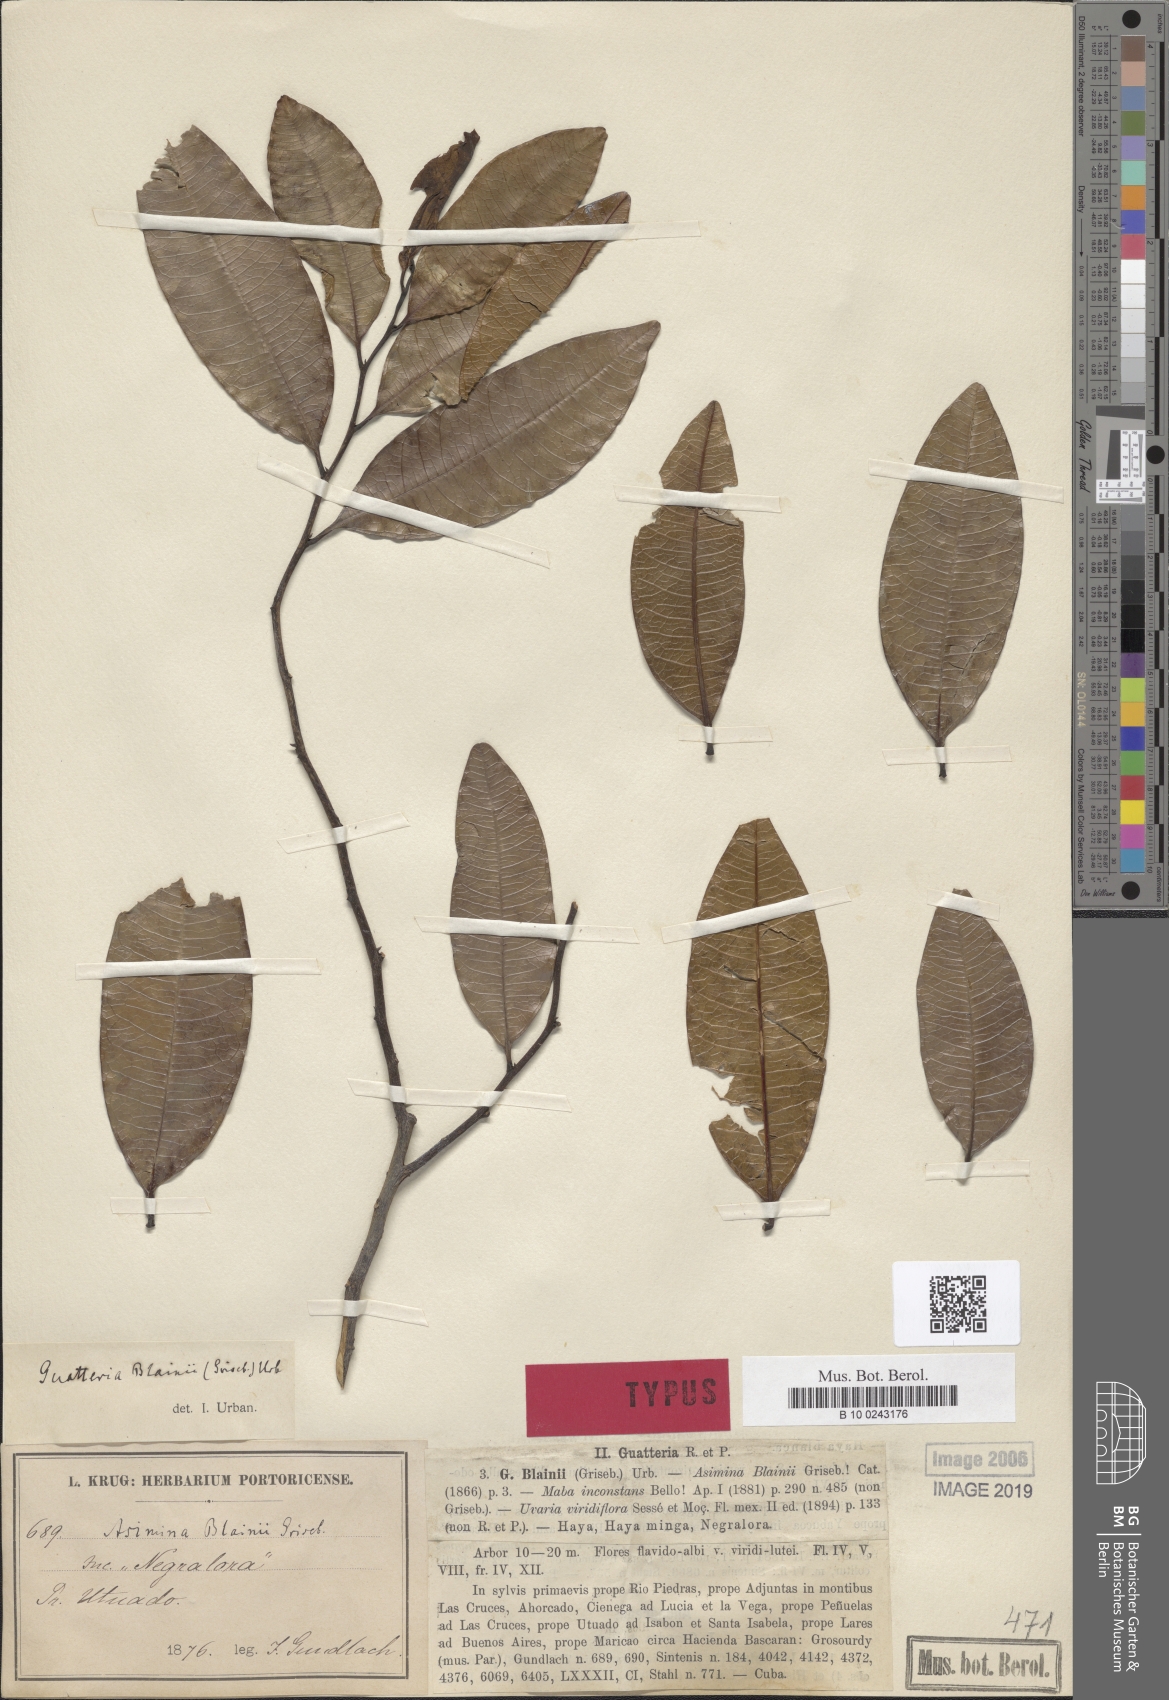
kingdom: Plantae
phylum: Tracheophyta
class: Magnoliopsida
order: Magnoliales
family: Annonaceae
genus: Guatteria
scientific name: Guatteria blainii
